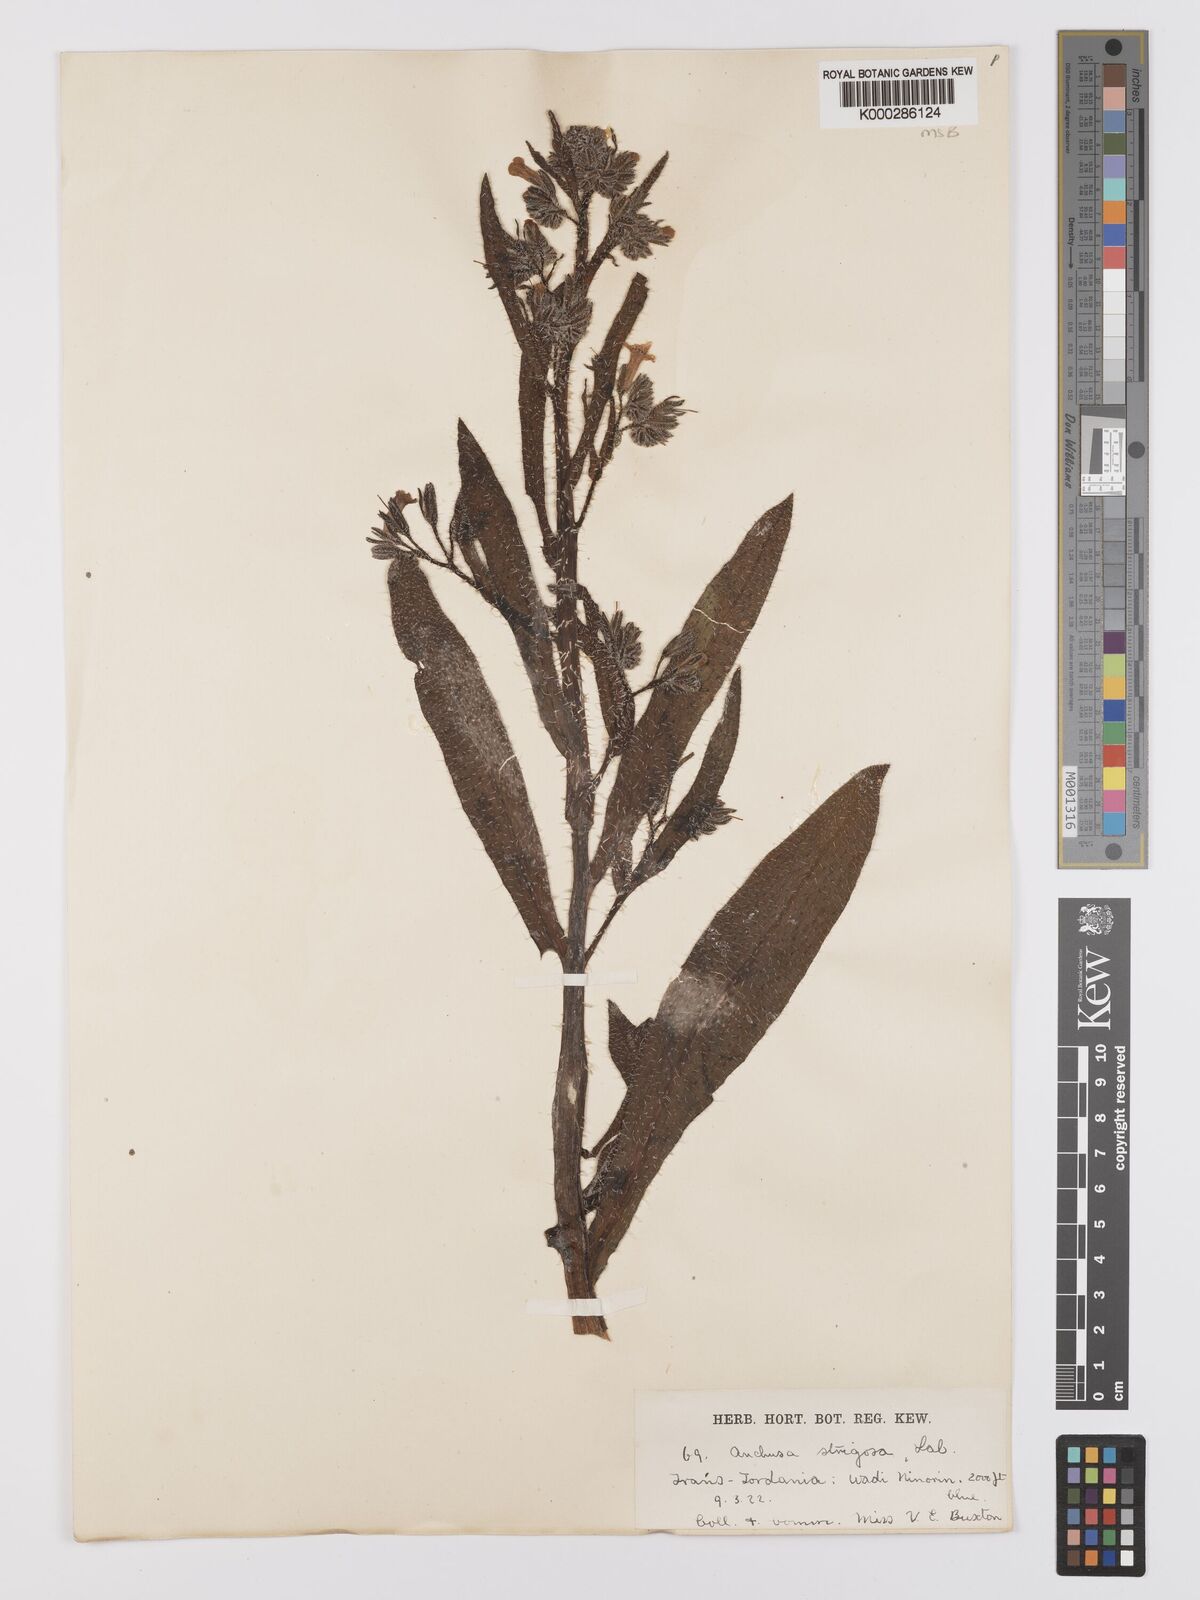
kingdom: Plantae
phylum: Tracheophyta
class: Magnoliopsida
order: Boraginales
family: Boraginaceae
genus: Anchusa
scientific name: Anchusa strigosa
